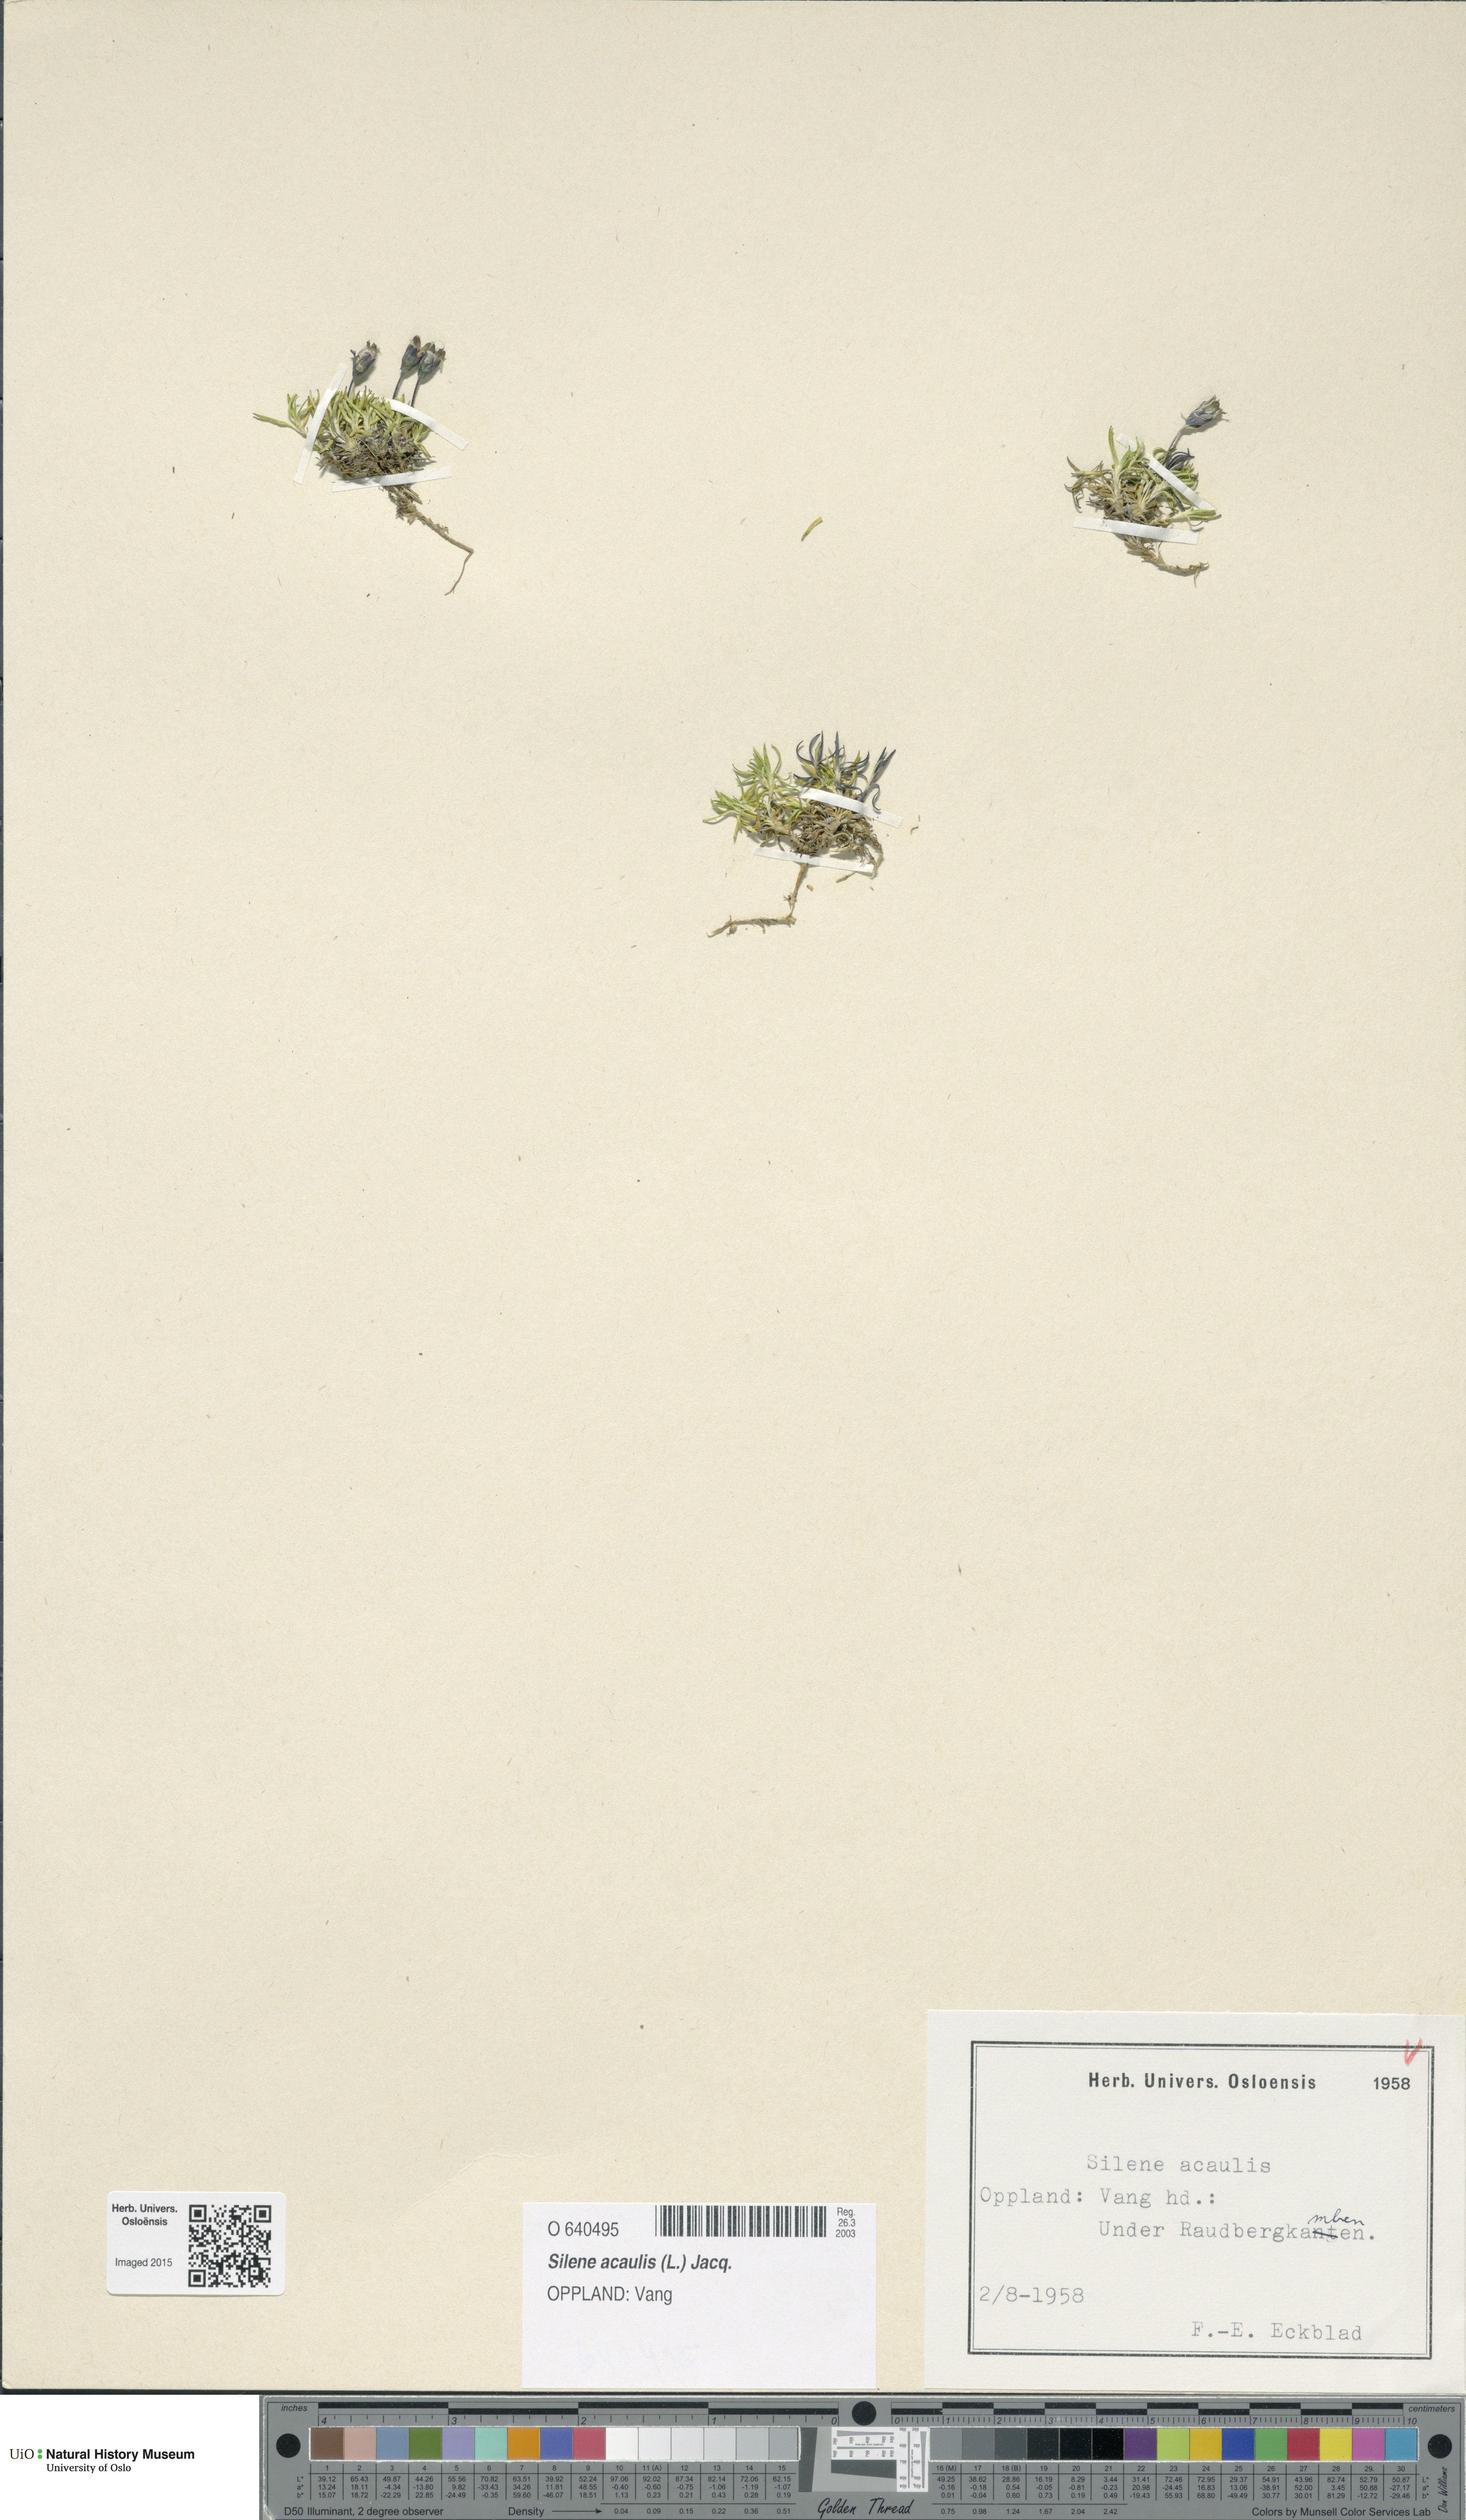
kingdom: Plantae
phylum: Tracheophyta
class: Magnoliopsida
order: Caryophyllales
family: Caryophyllaceae
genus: Silene
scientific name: Silene acaulis
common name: Moss campion
